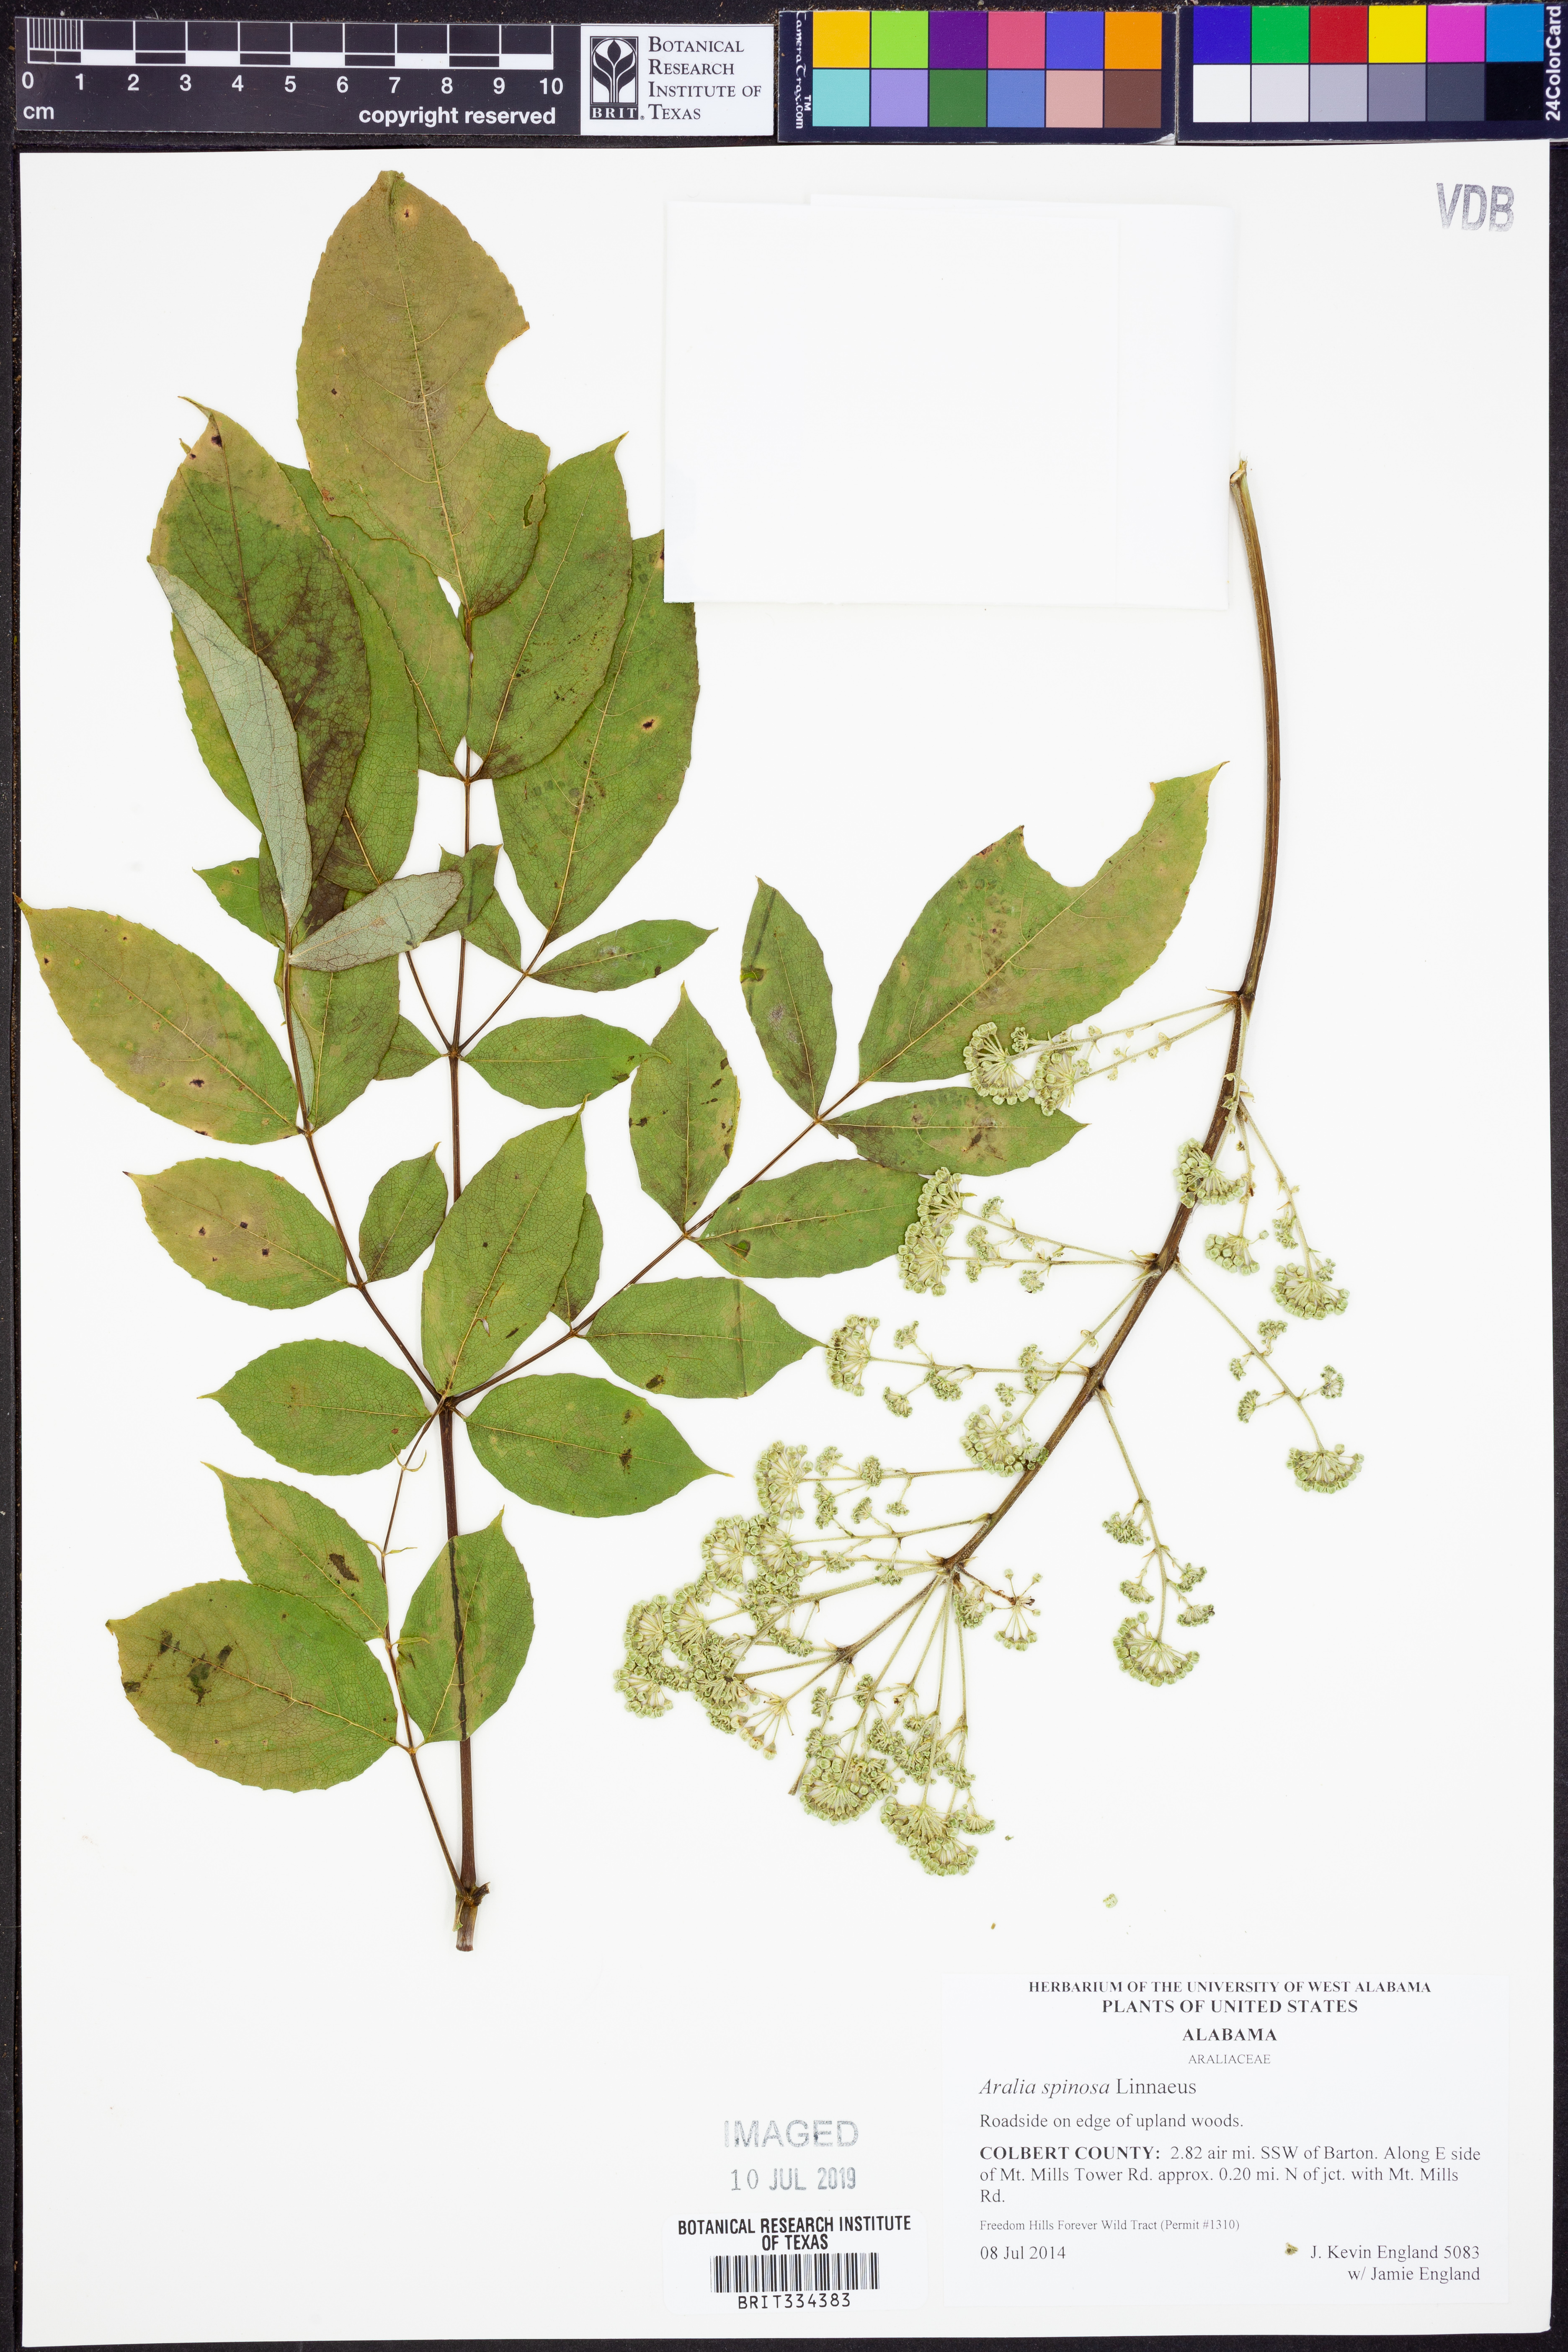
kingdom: Plantae
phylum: Tracheophyta
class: Magnoliopsida
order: Apiales
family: Araliaceae
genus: Aralia
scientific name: Aralia spinosa
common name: Hercules'-club
